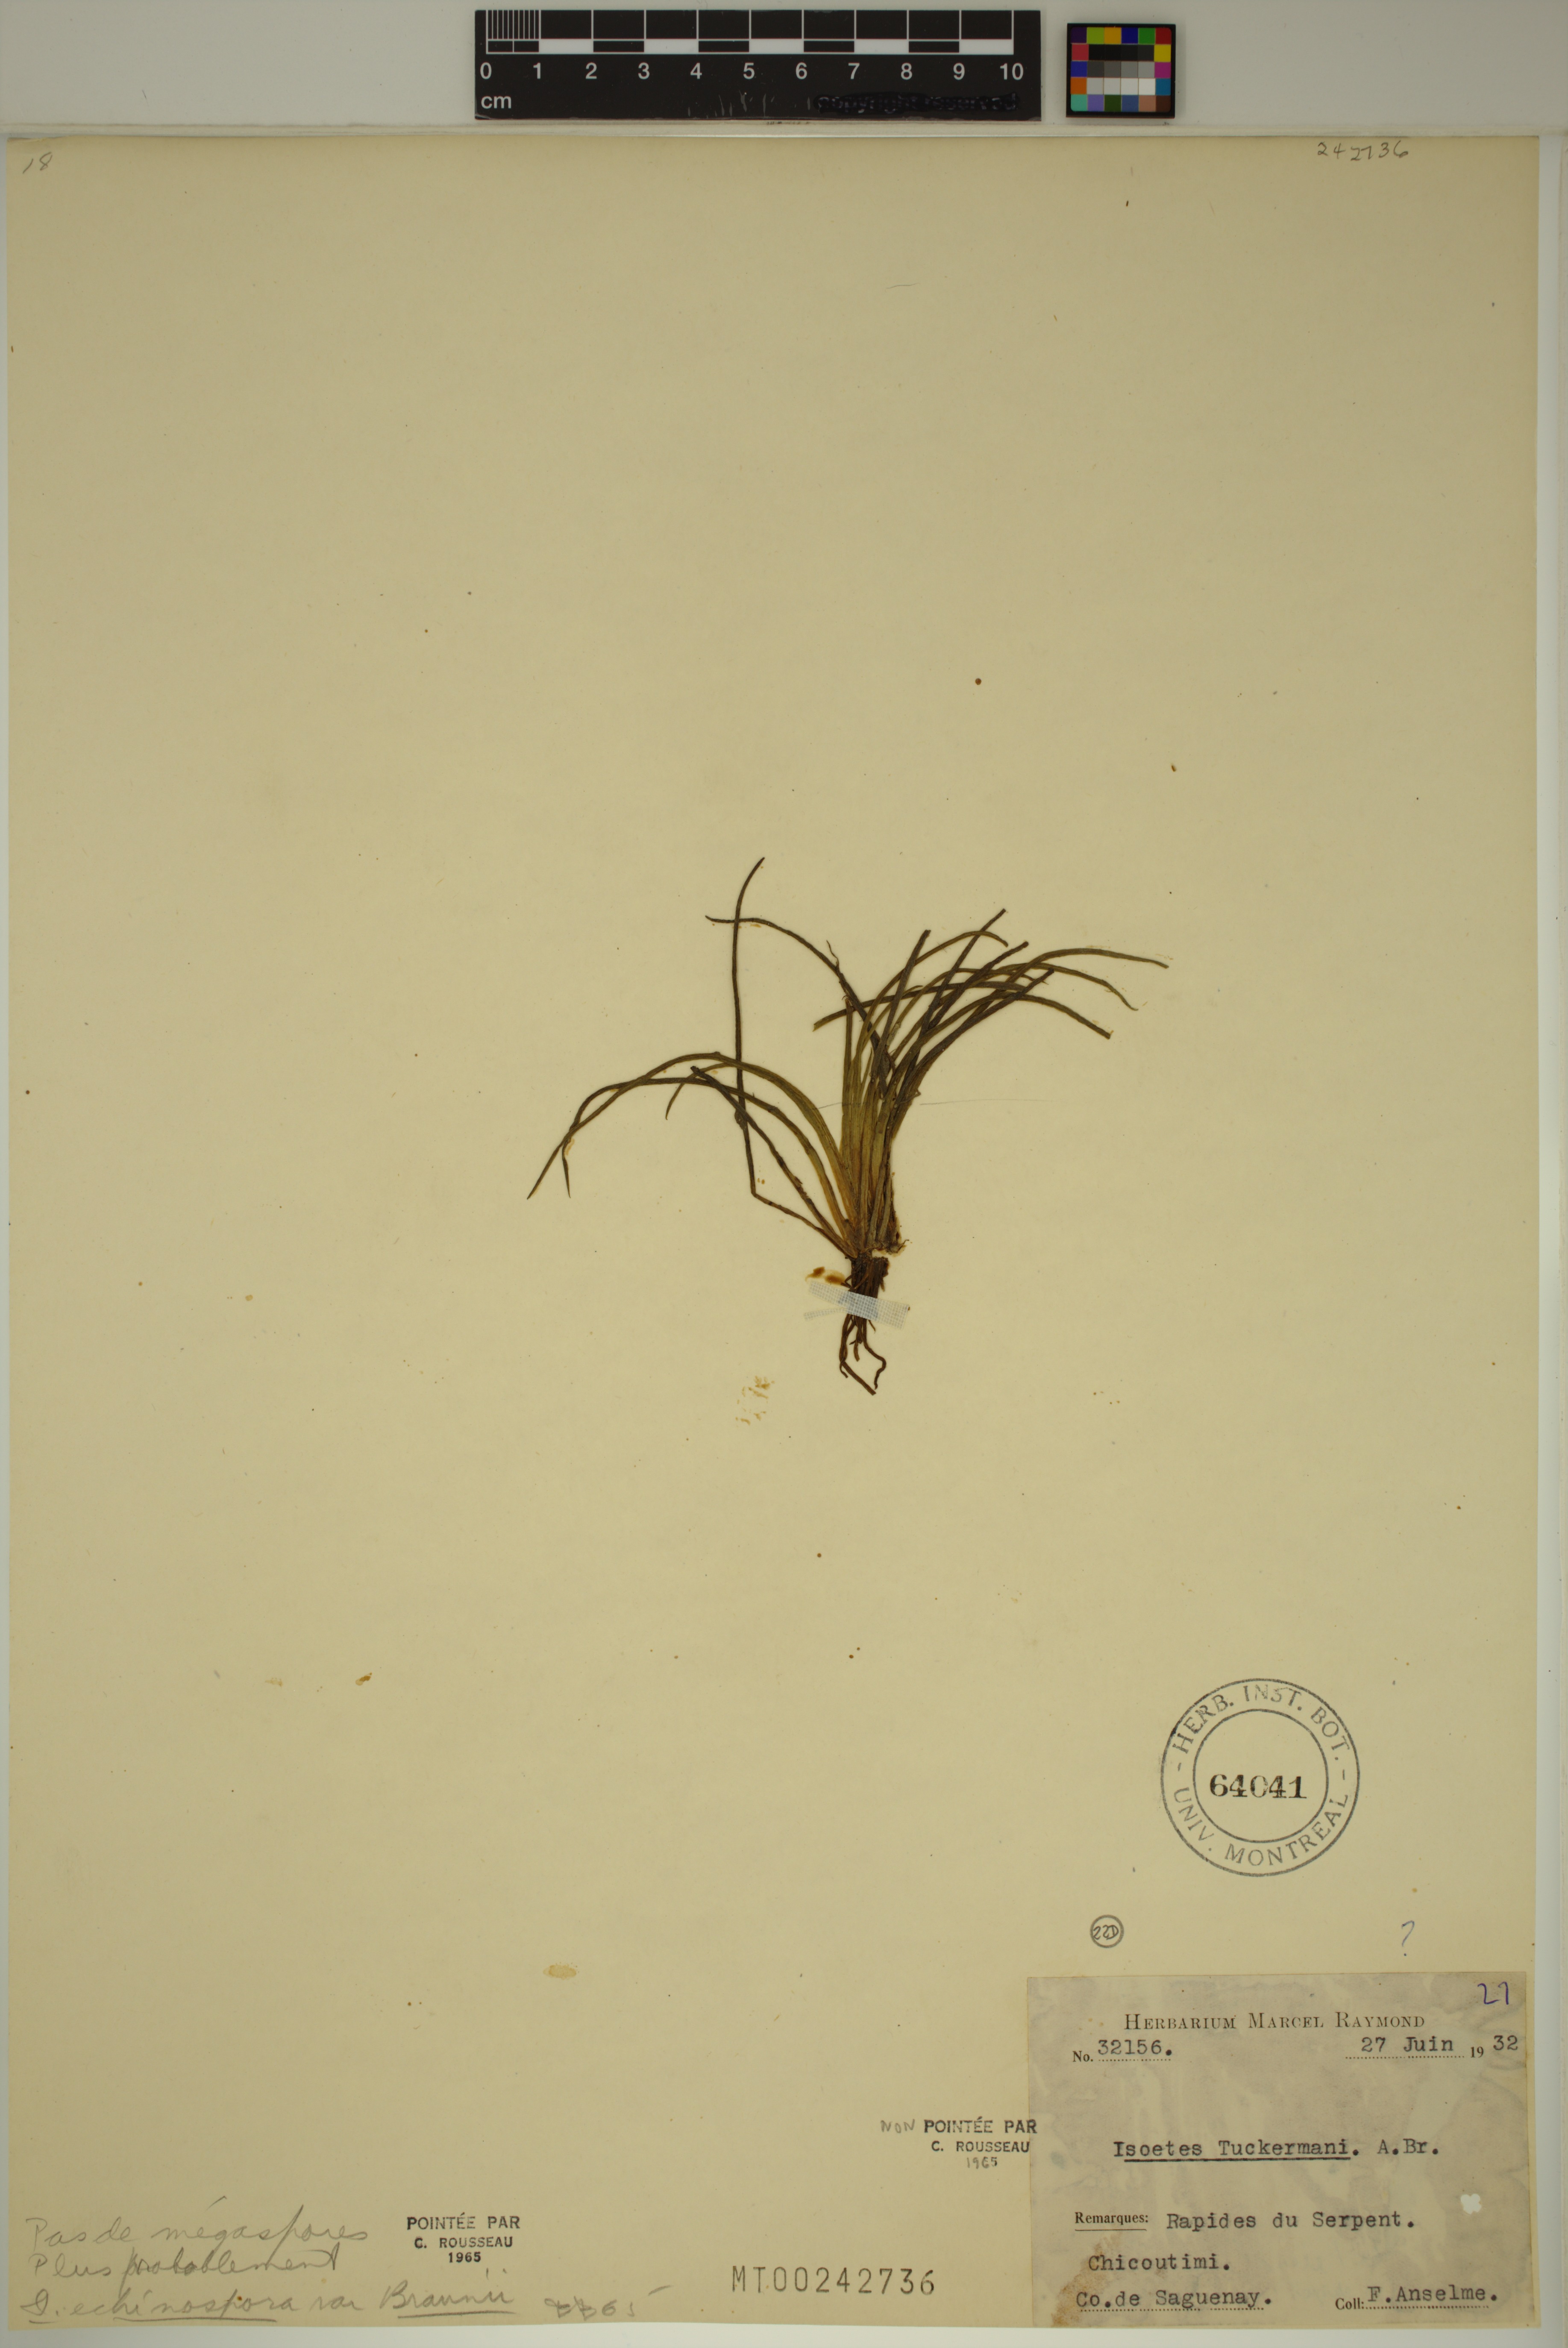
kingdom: Plantae
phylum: Tracheophyta
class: Lycopodiopsida
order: Isoetales
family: Isoetaceae
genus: Isoetes
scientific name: Isoetes
